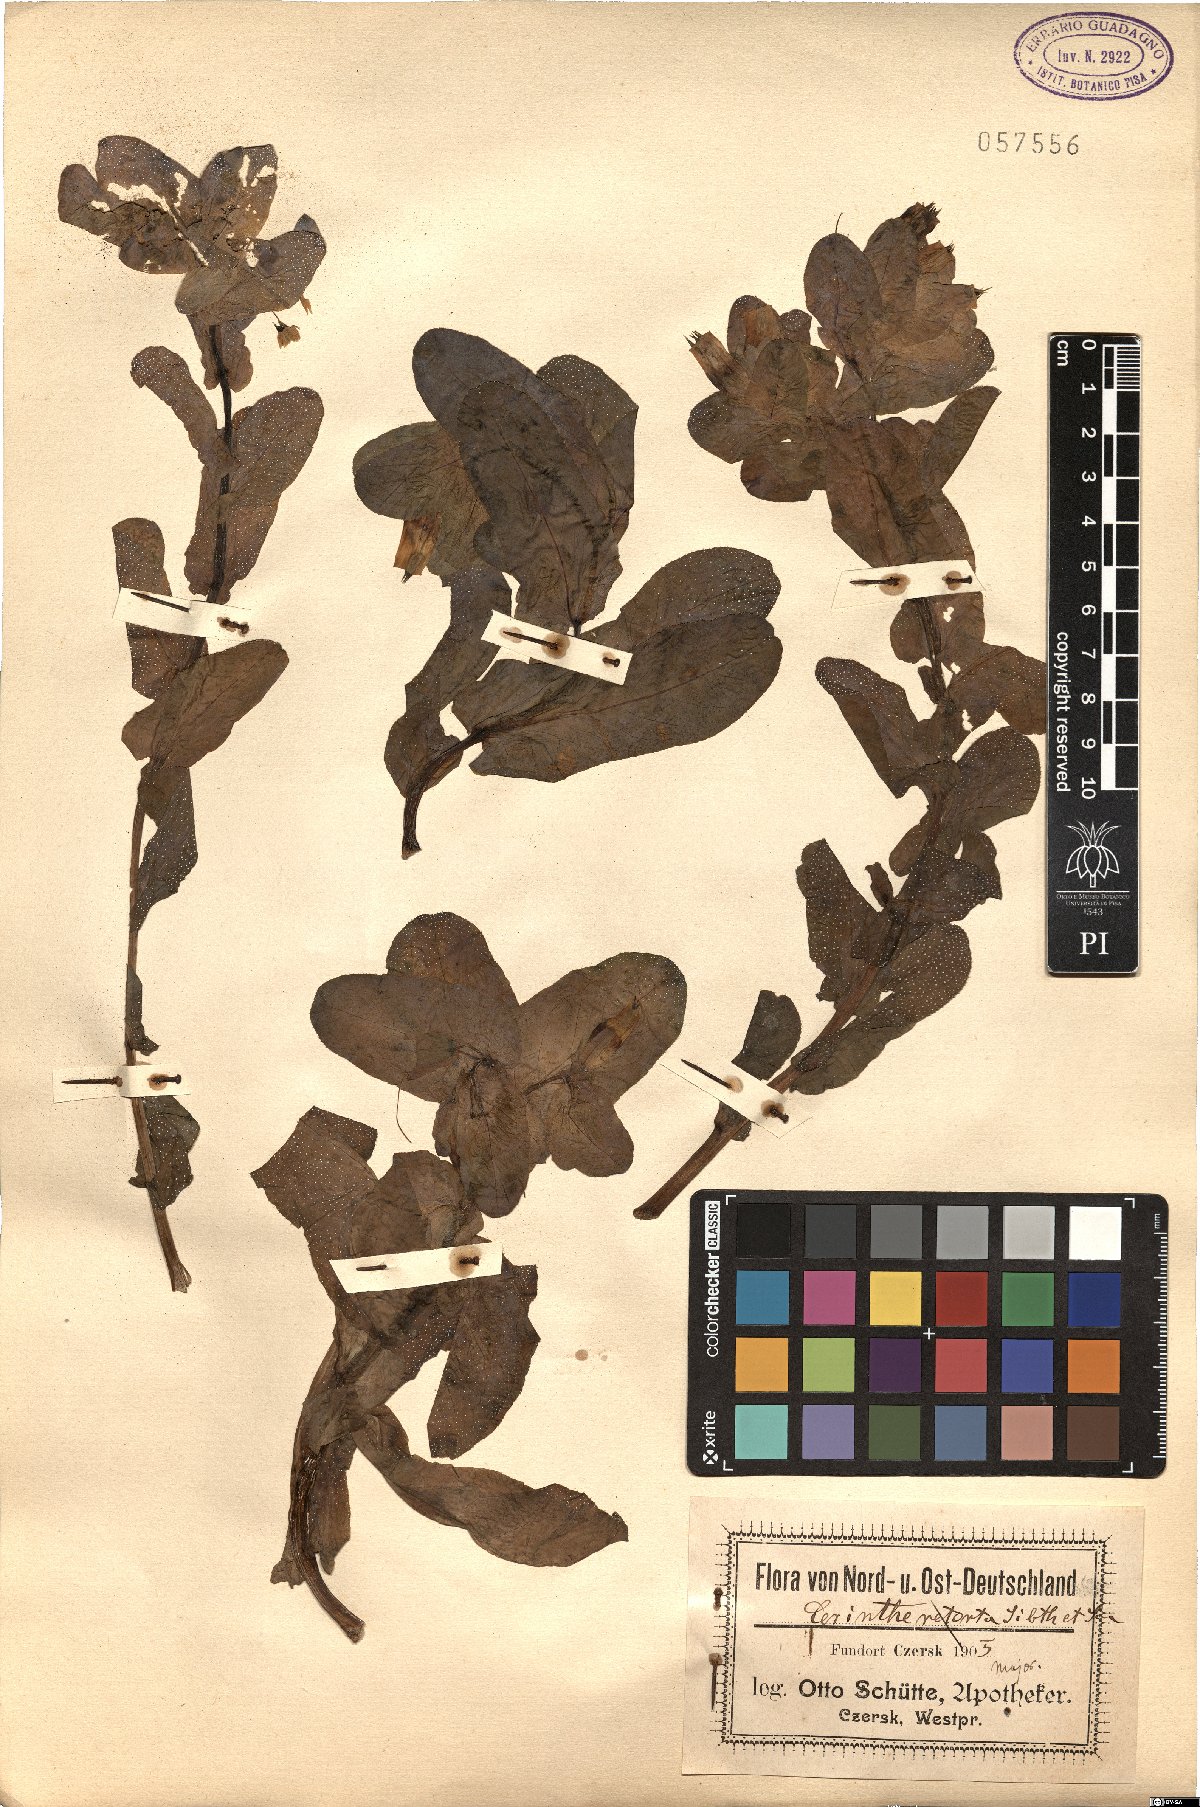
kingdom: Plantae
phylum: Tracheophyta
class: Magnoliopsida
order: Boraginales
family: Boraginaceae
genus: Cerinthe
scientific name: Cerinthe retorta
